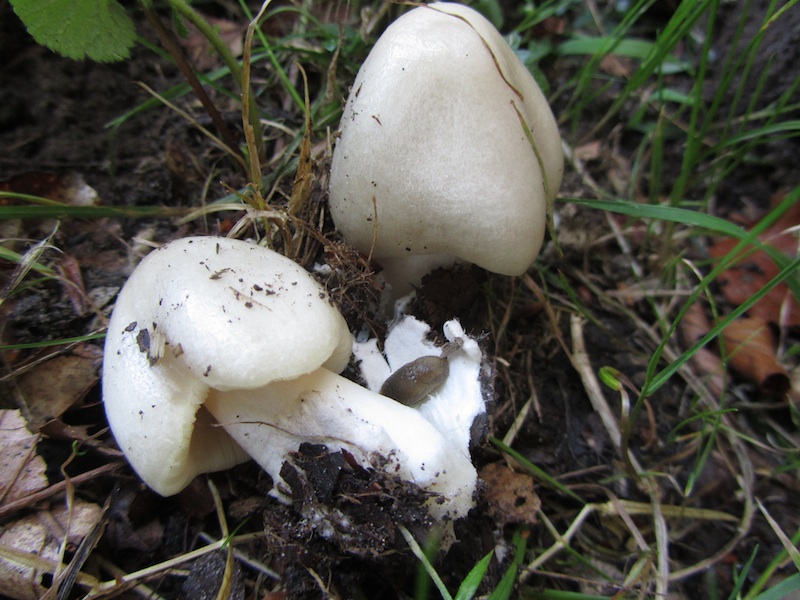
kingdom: Fungi
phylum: Basidiomycota
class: Agaricomycetes
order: Agaricales
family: Pluteaceae
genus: Volvopluteus
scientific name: Volvopluteus gloiocephalus
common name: høj posesvamp
